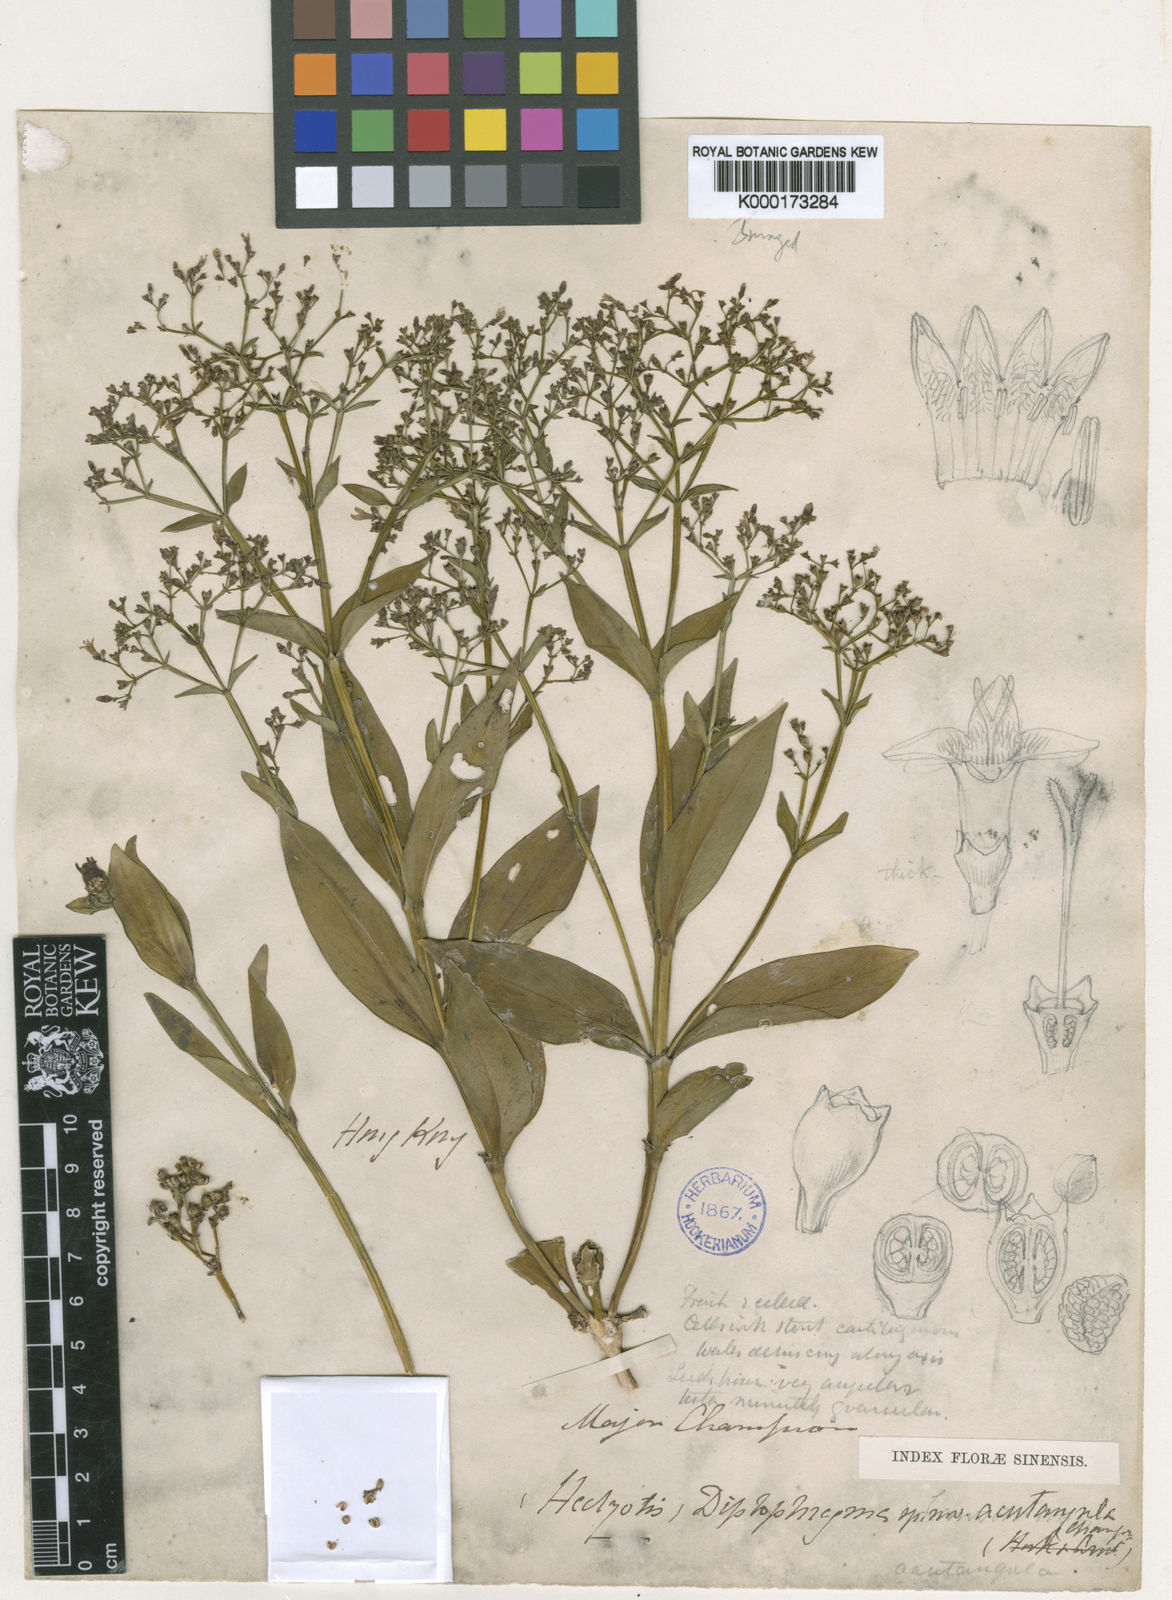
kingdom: Plantae
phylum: Tracheophyta
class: Magnoliopsida
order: Gentianales
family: Rubiaceae
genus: Hedyotis
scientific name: Hedyotis acutangula
